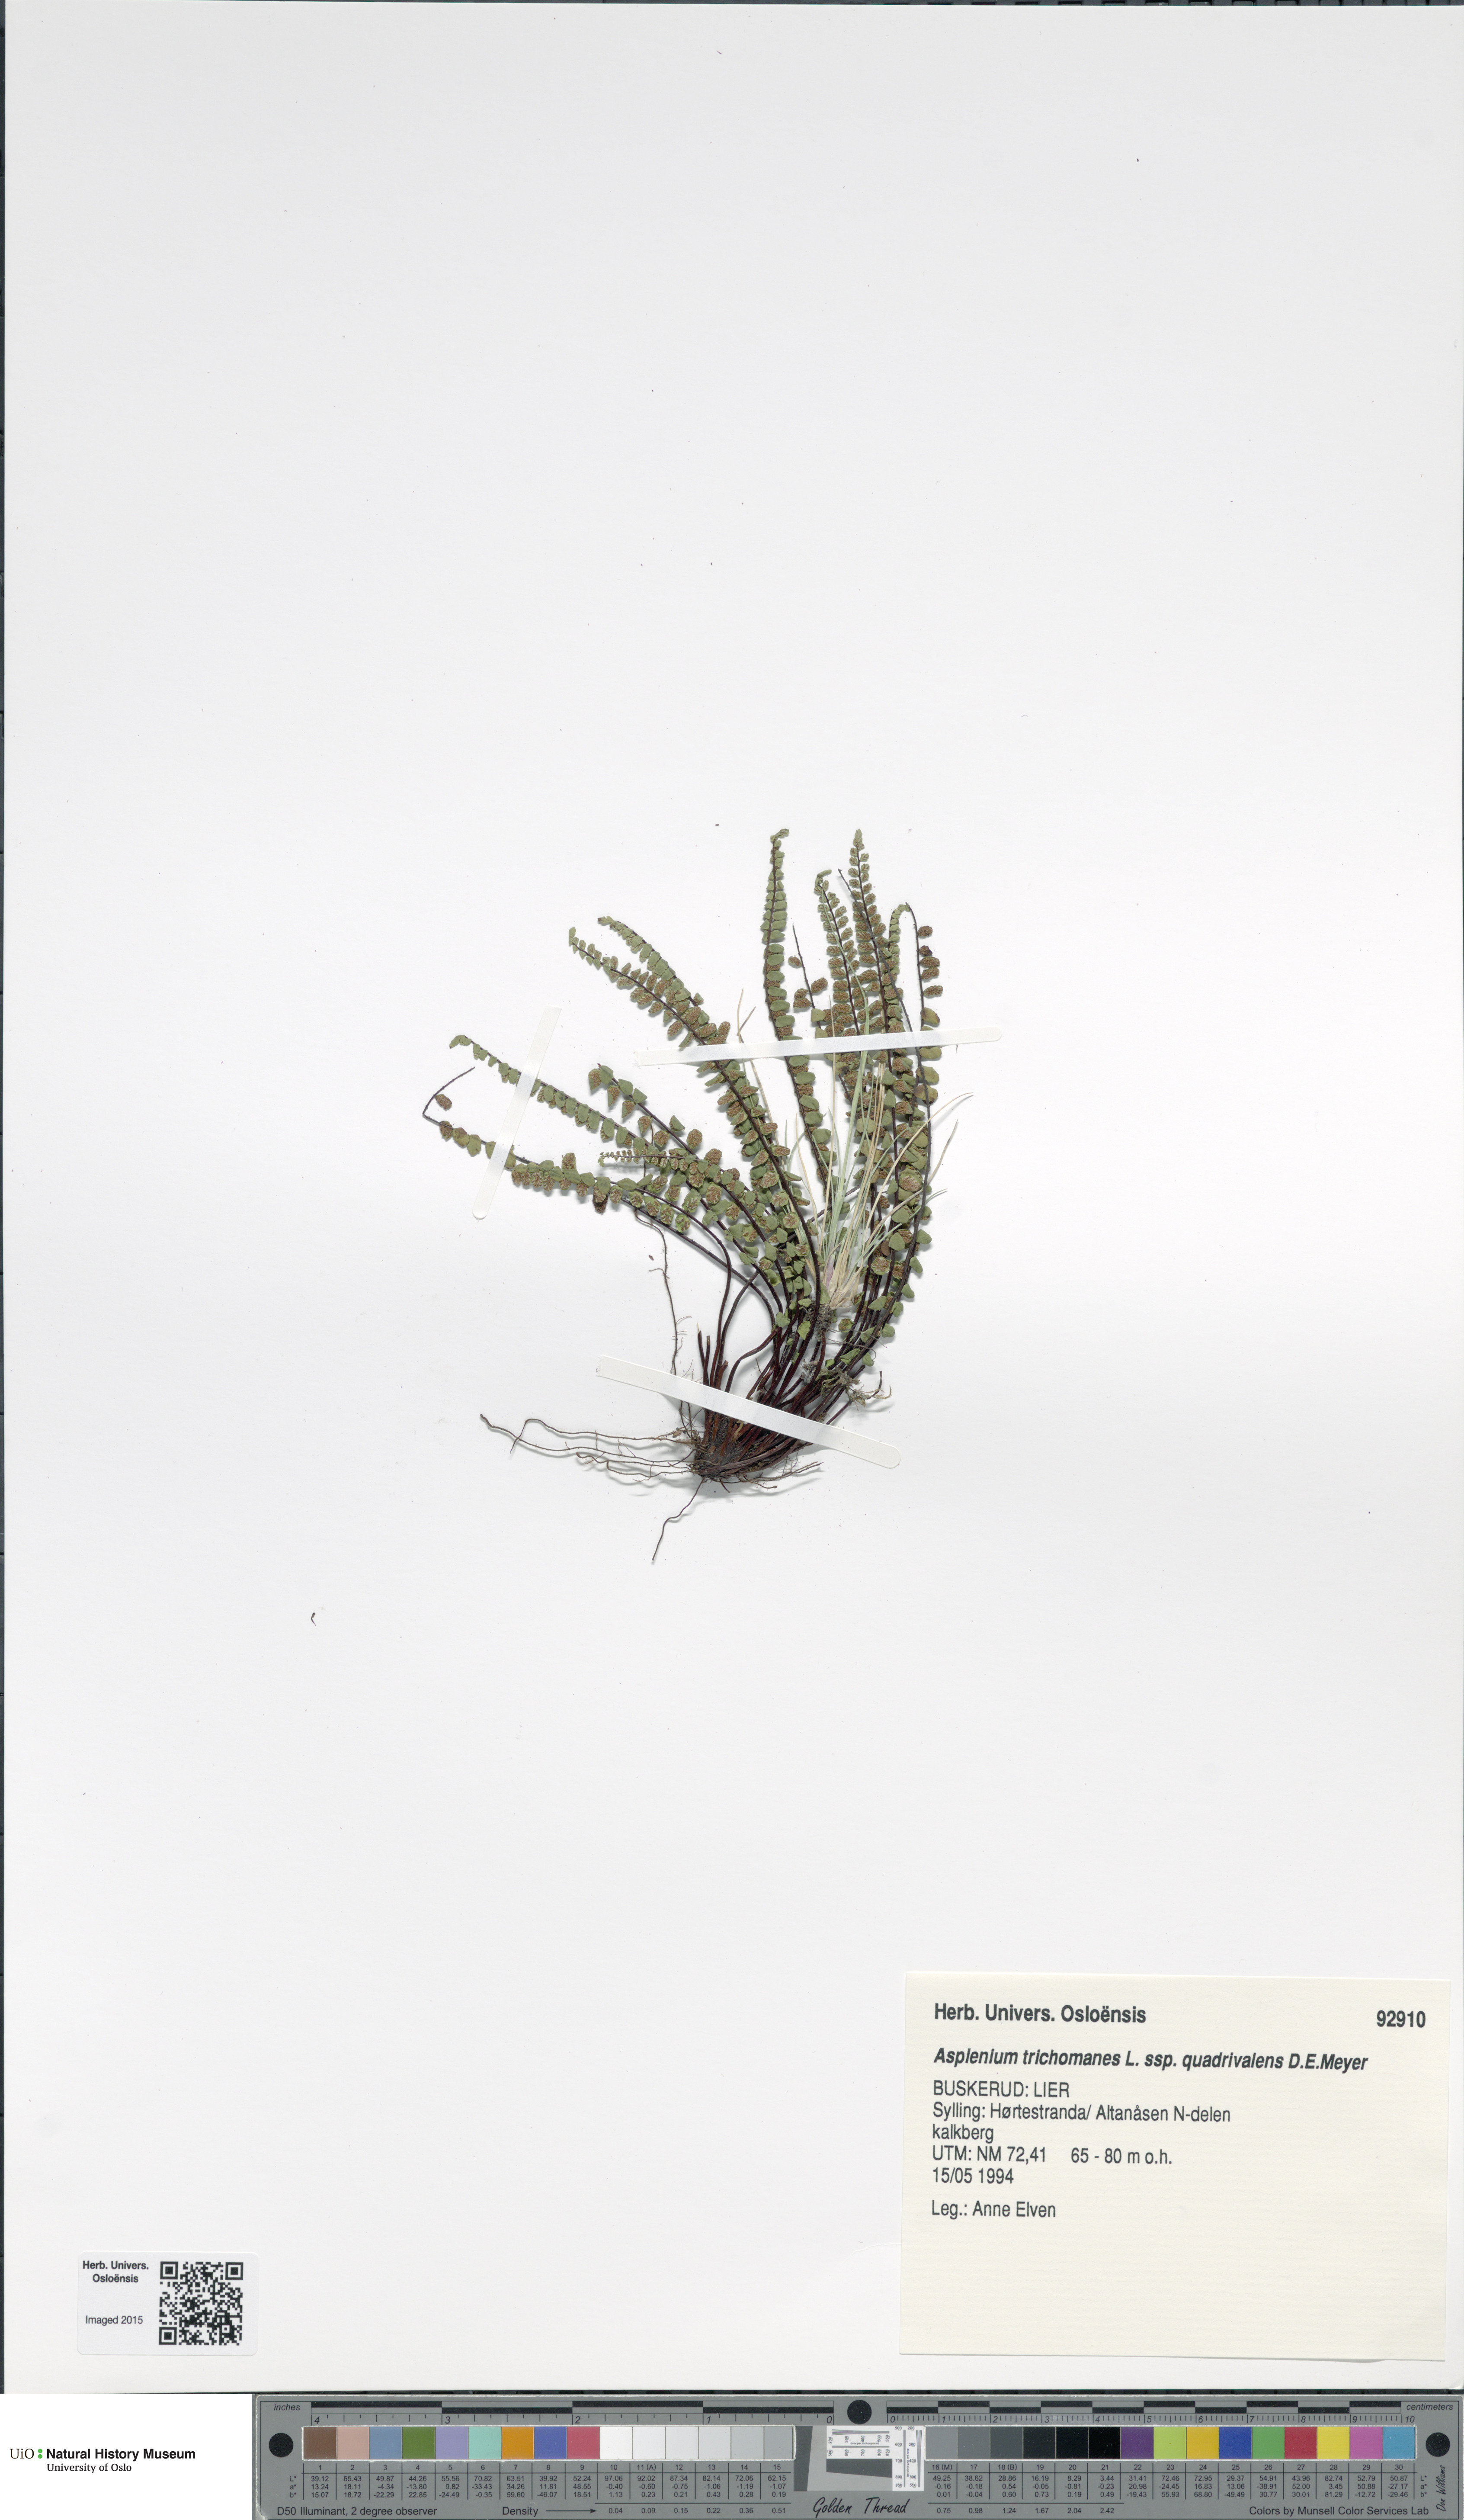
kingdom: Plantae
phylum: Tracheophyta
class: Polypodiopsida
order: Polypodiales
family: Aspleniaceae
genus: Asplenium
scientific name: Asplenium quadrivalens
